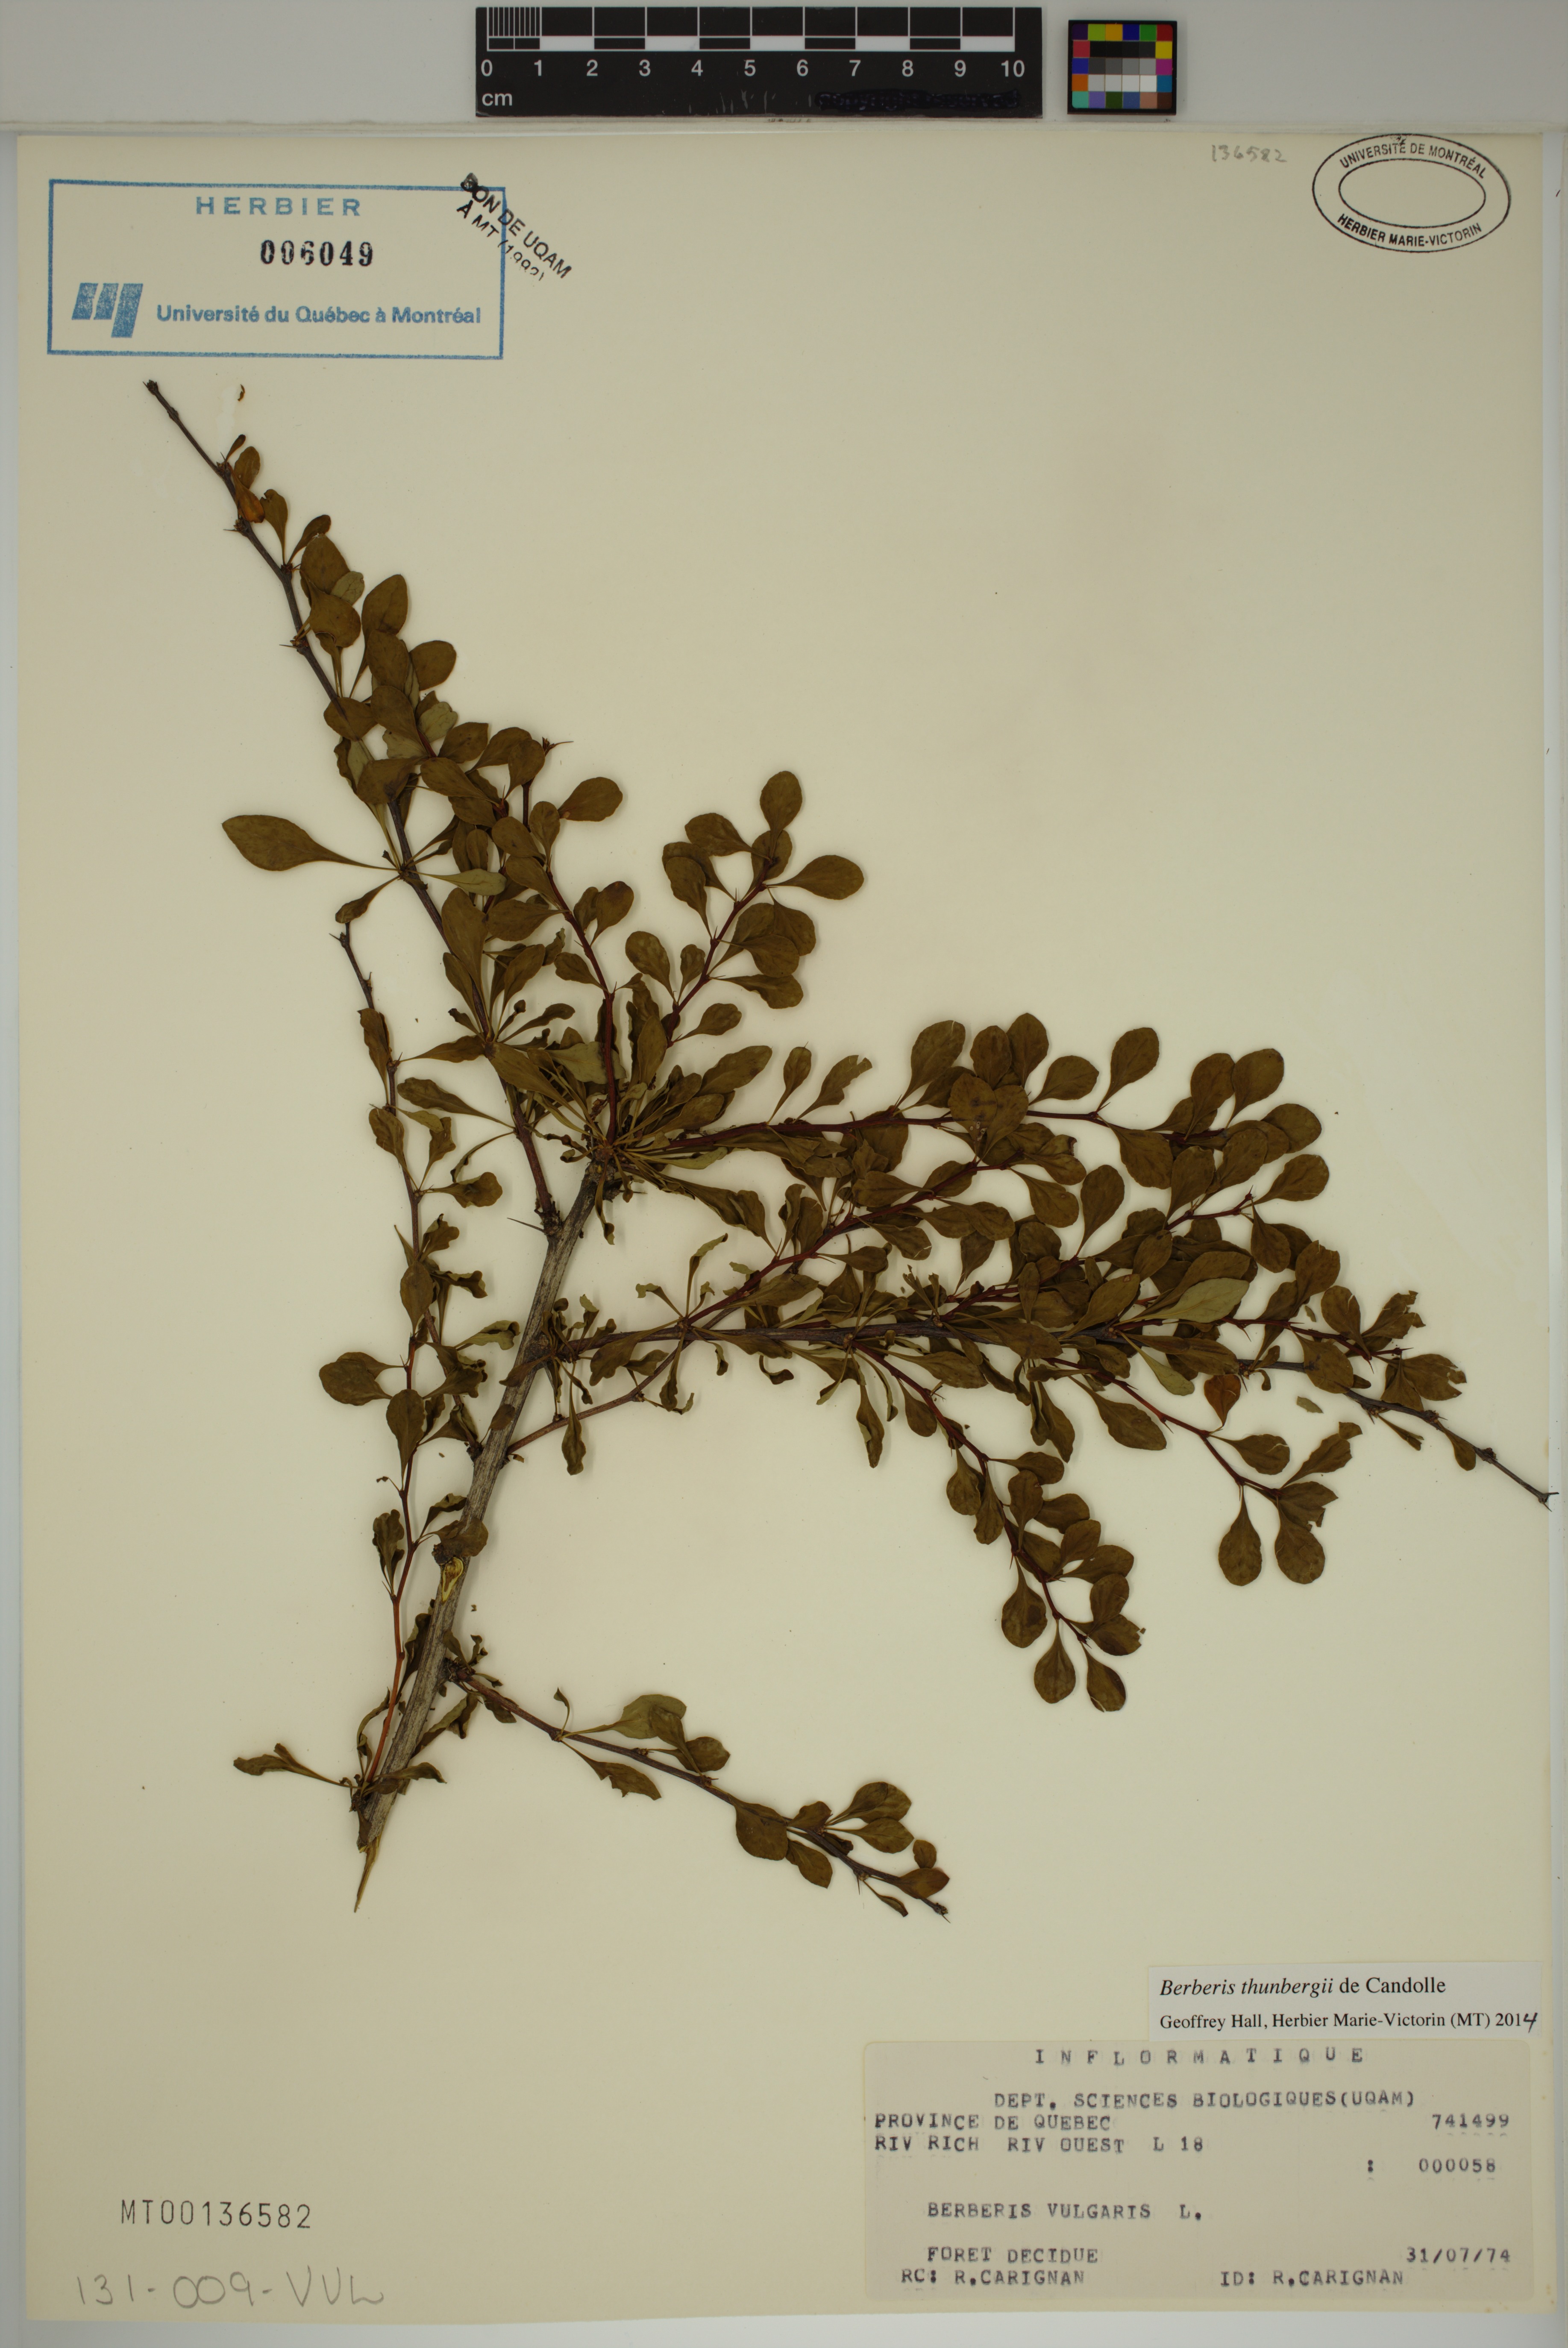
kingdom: Plantae
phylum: Tracheophyta
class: Magnoliopsida
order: Ranunculales
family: Berberidaceae
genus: Berberis
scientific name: Berberis thunbergii
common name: Japanese barberry
